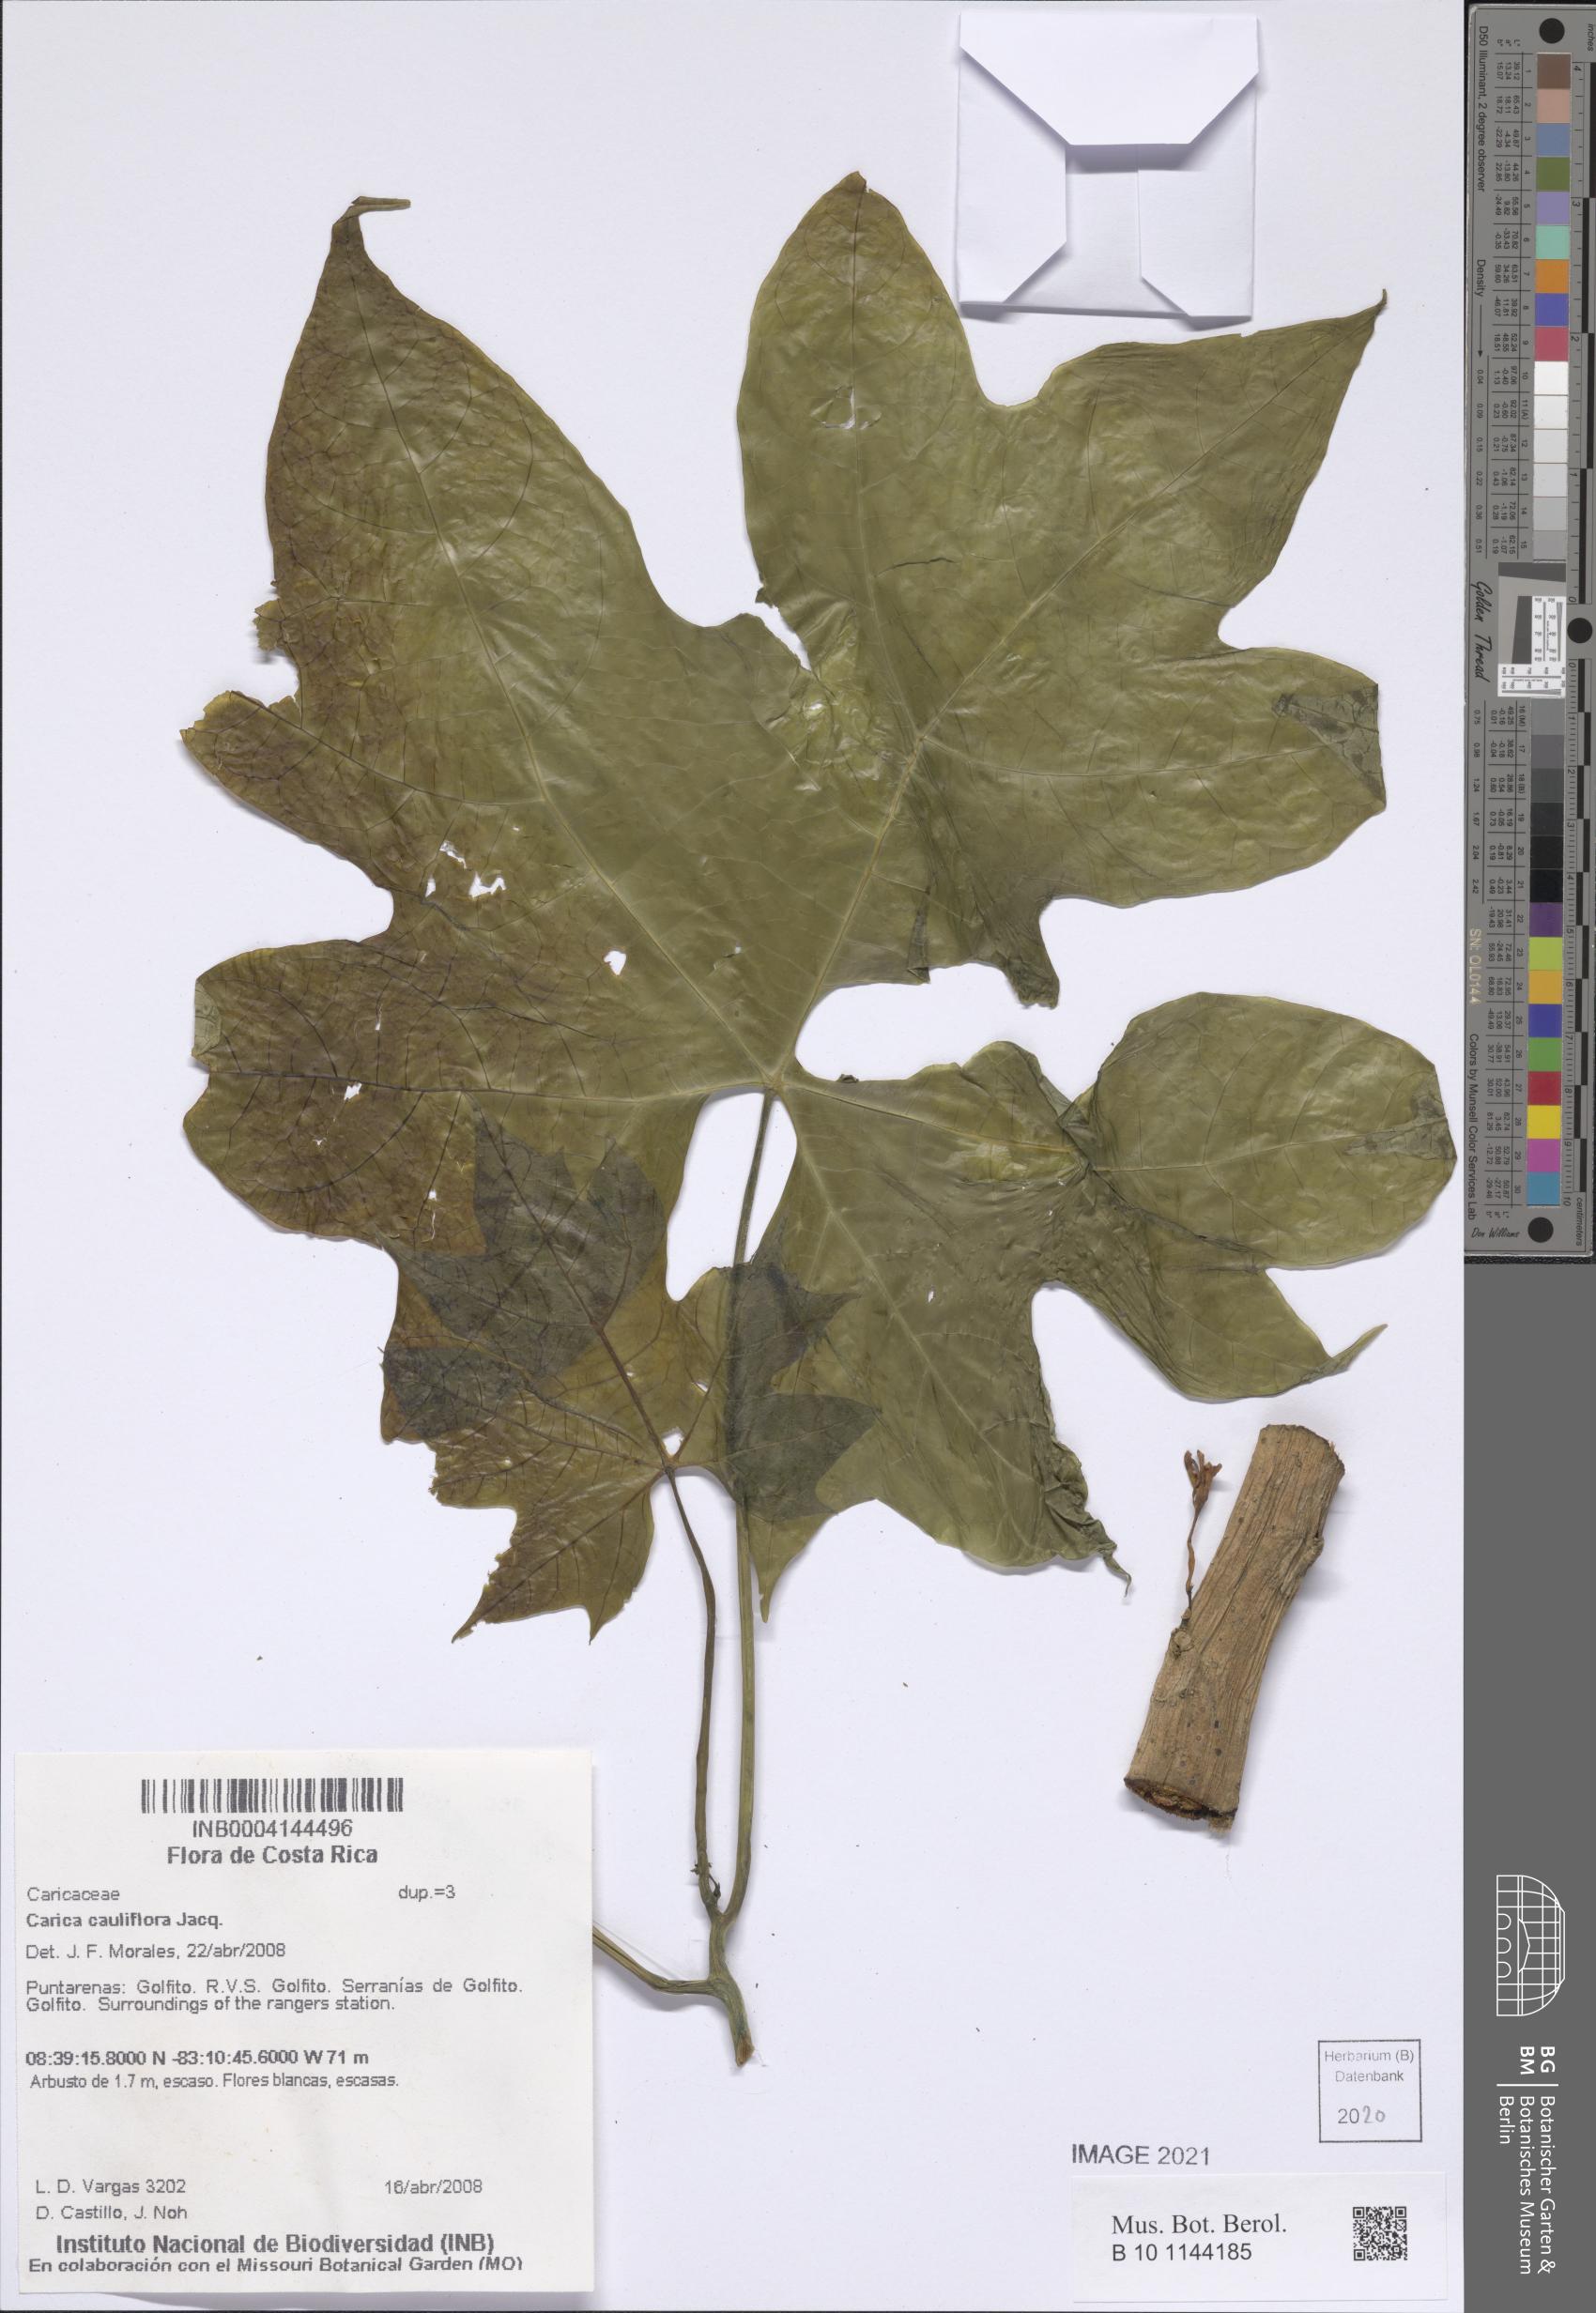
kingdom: Plantae
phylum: Tracheophyta
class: Magnoliopsida
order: Brassicales
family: Caricaceae
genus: Vasconcellea
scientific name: Vasconcellea cauliflora
